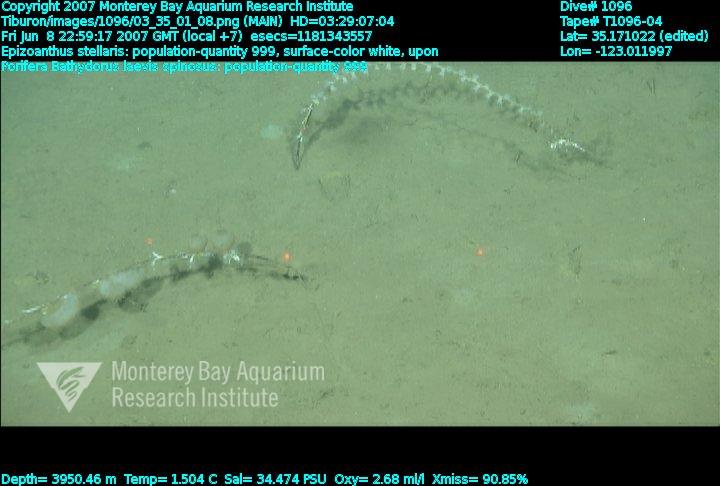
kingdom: Animalia
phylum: Porifera
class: Hexactinellida
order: Lyssacinosida
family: Rossellidae
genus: Bathydorus
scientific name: Bathydorus spinosus
